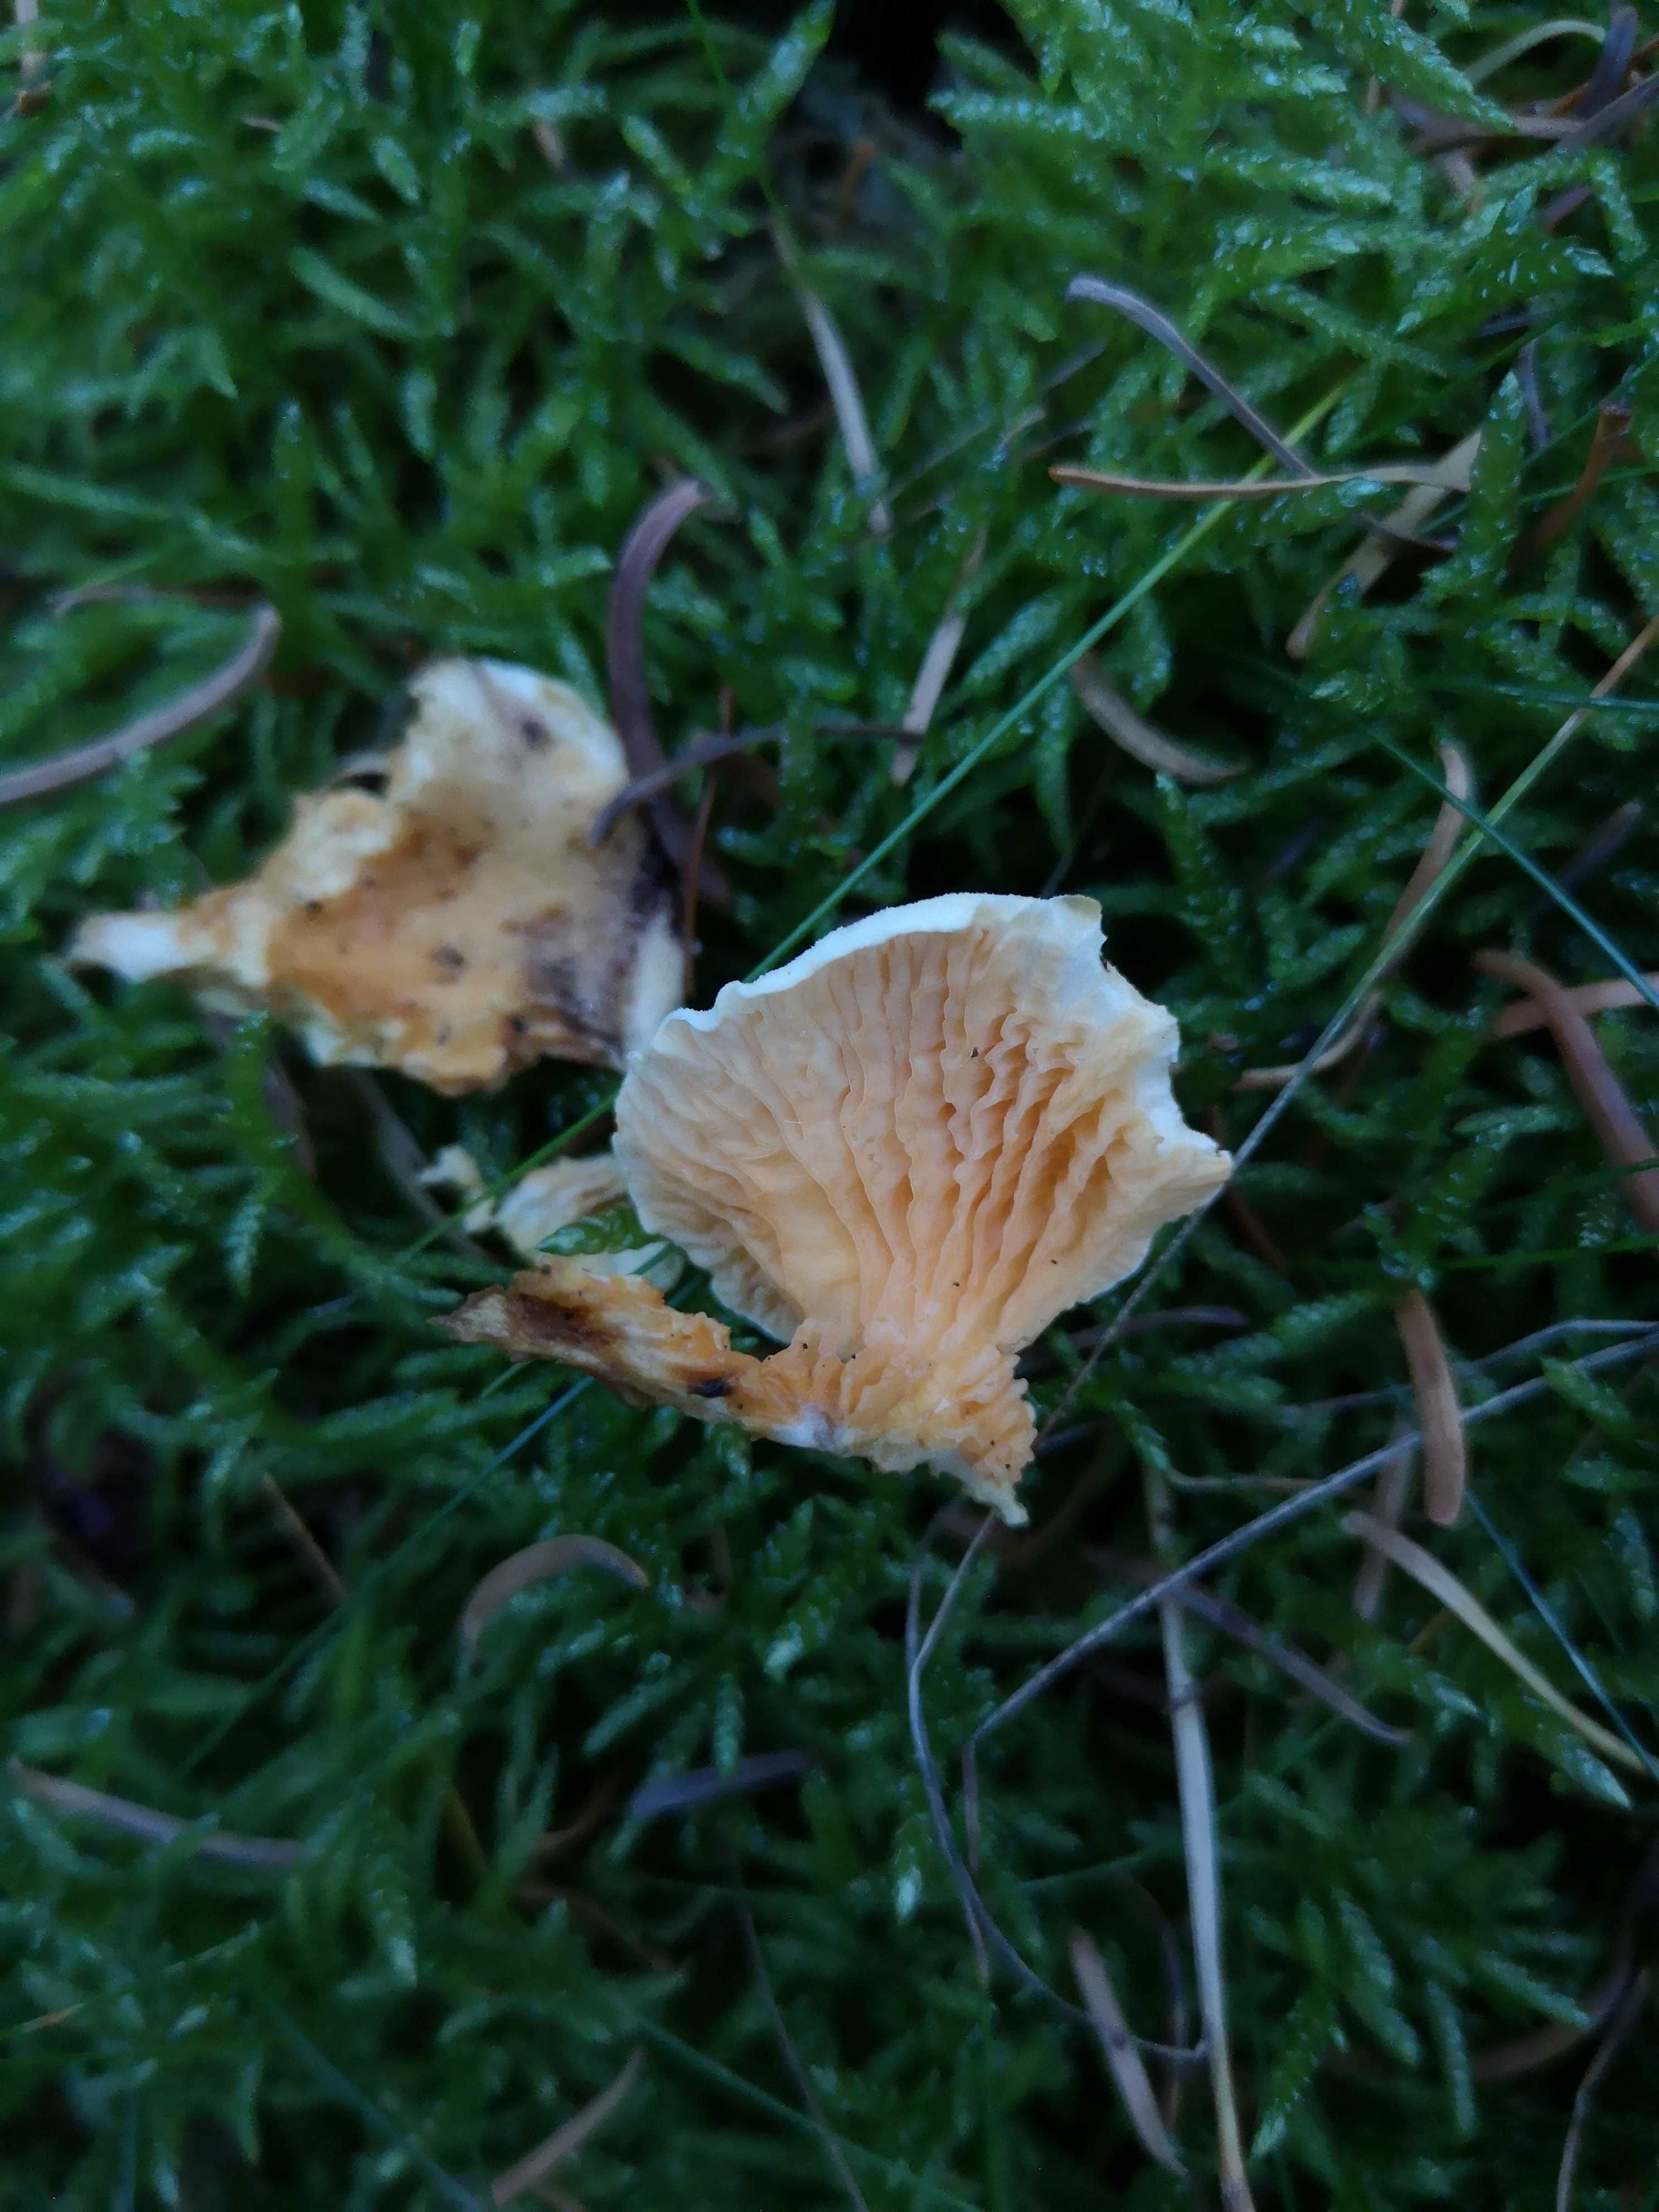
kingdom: Fungi
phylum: Basidiomycota
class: Agaricomycetes
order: Boletales
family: Hygrophoropsidaceae
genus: Hygrophoropsis
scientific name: Hygrophoropsis aurantiaca
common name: almindelig orangekantarel
